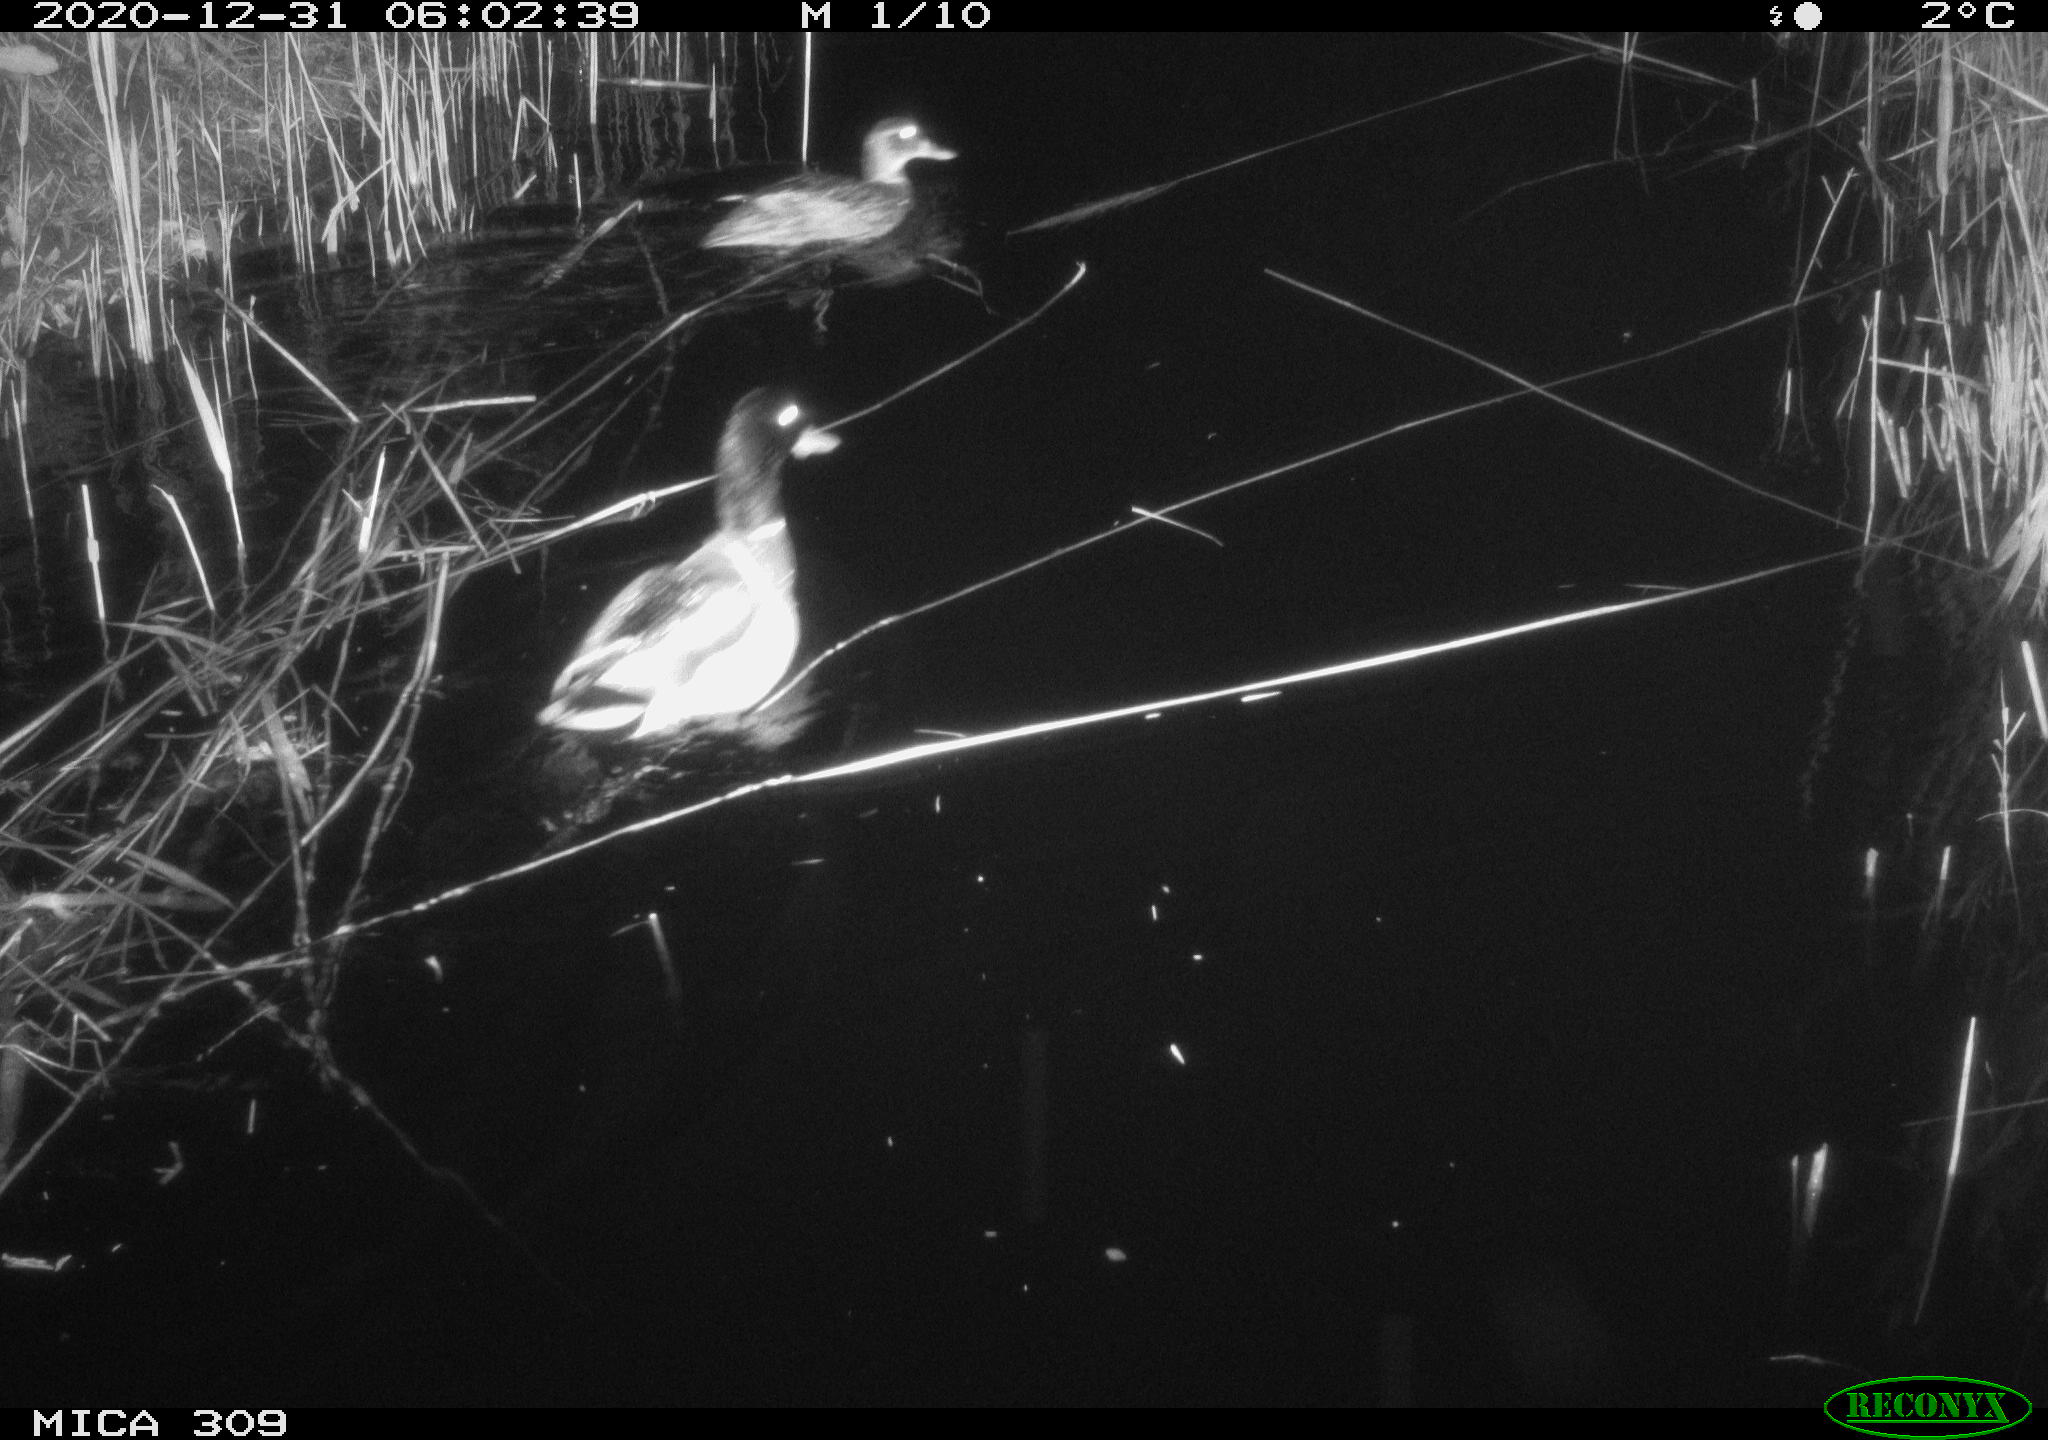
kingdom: Animalia
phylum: Chordata
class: Aves
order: Anseriformes
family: Anatidae
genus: Anas
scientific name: Anas platyrhynchos
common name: Mallard
